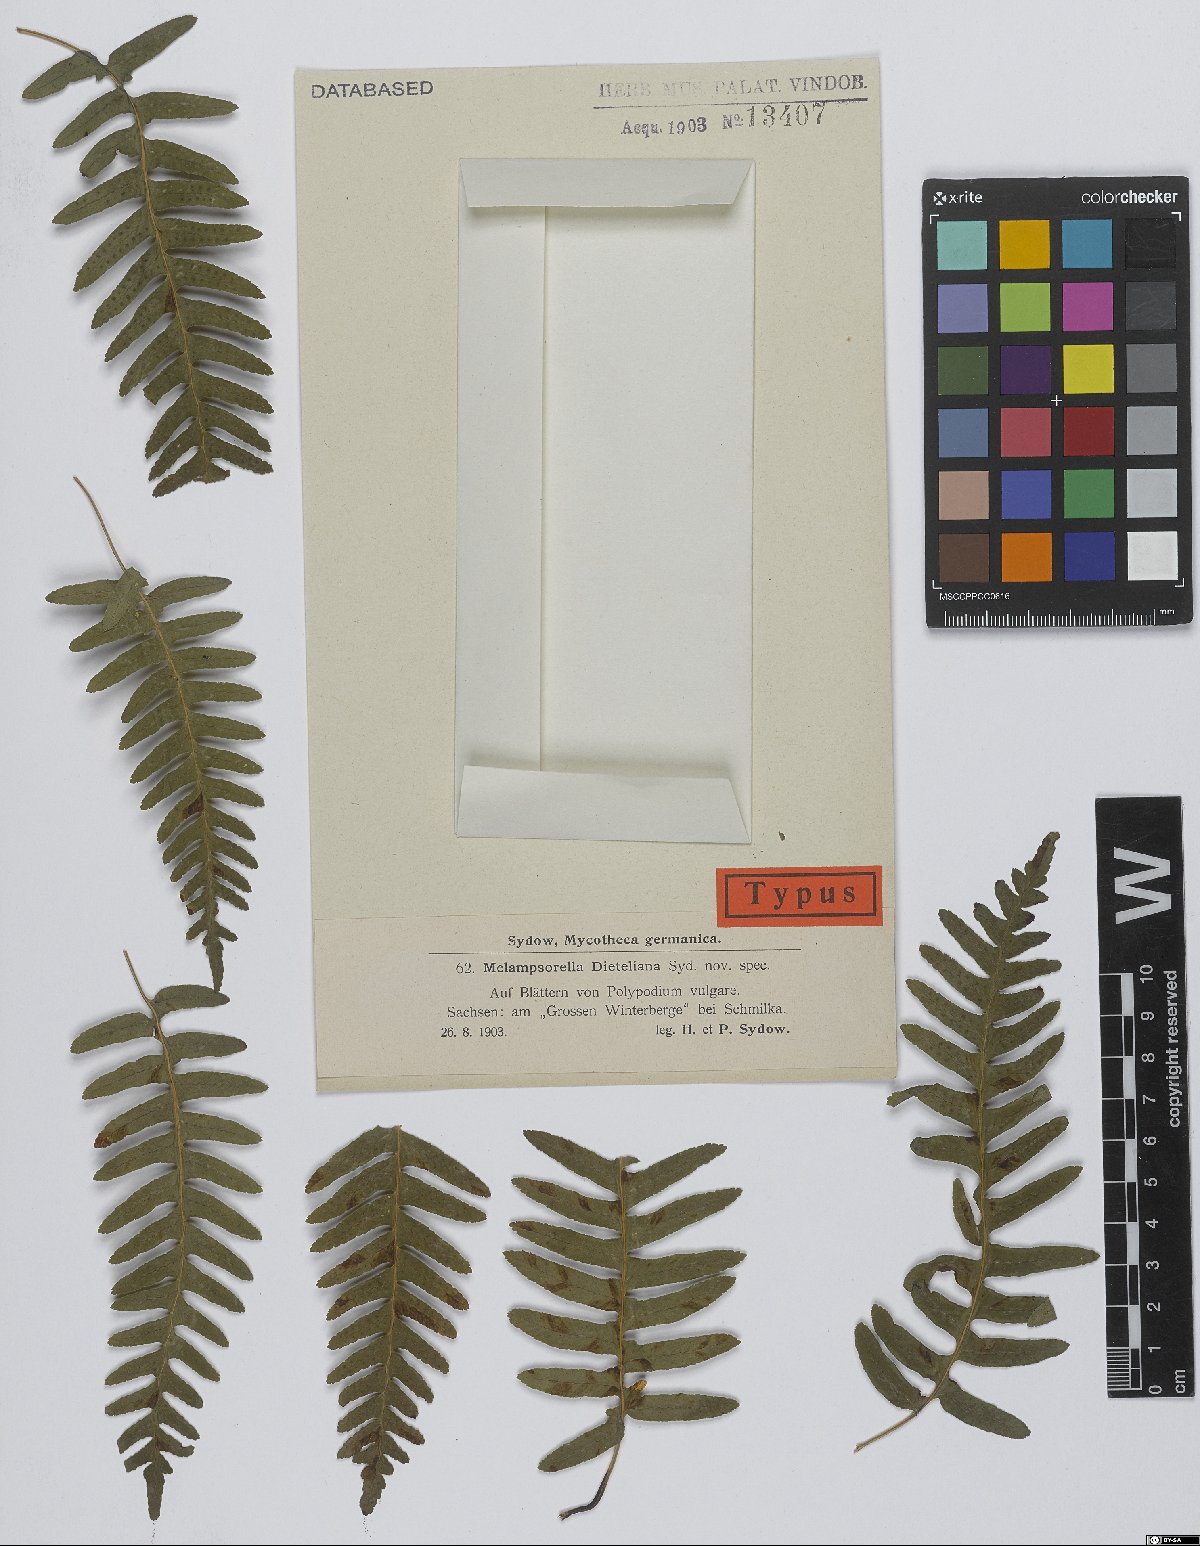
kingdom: Fungi
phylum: Basidiomycota
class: Pucciniomycetes
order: Pucciniales
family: Milesinaceae
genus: Milesina
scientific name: Milesina dieteliana
